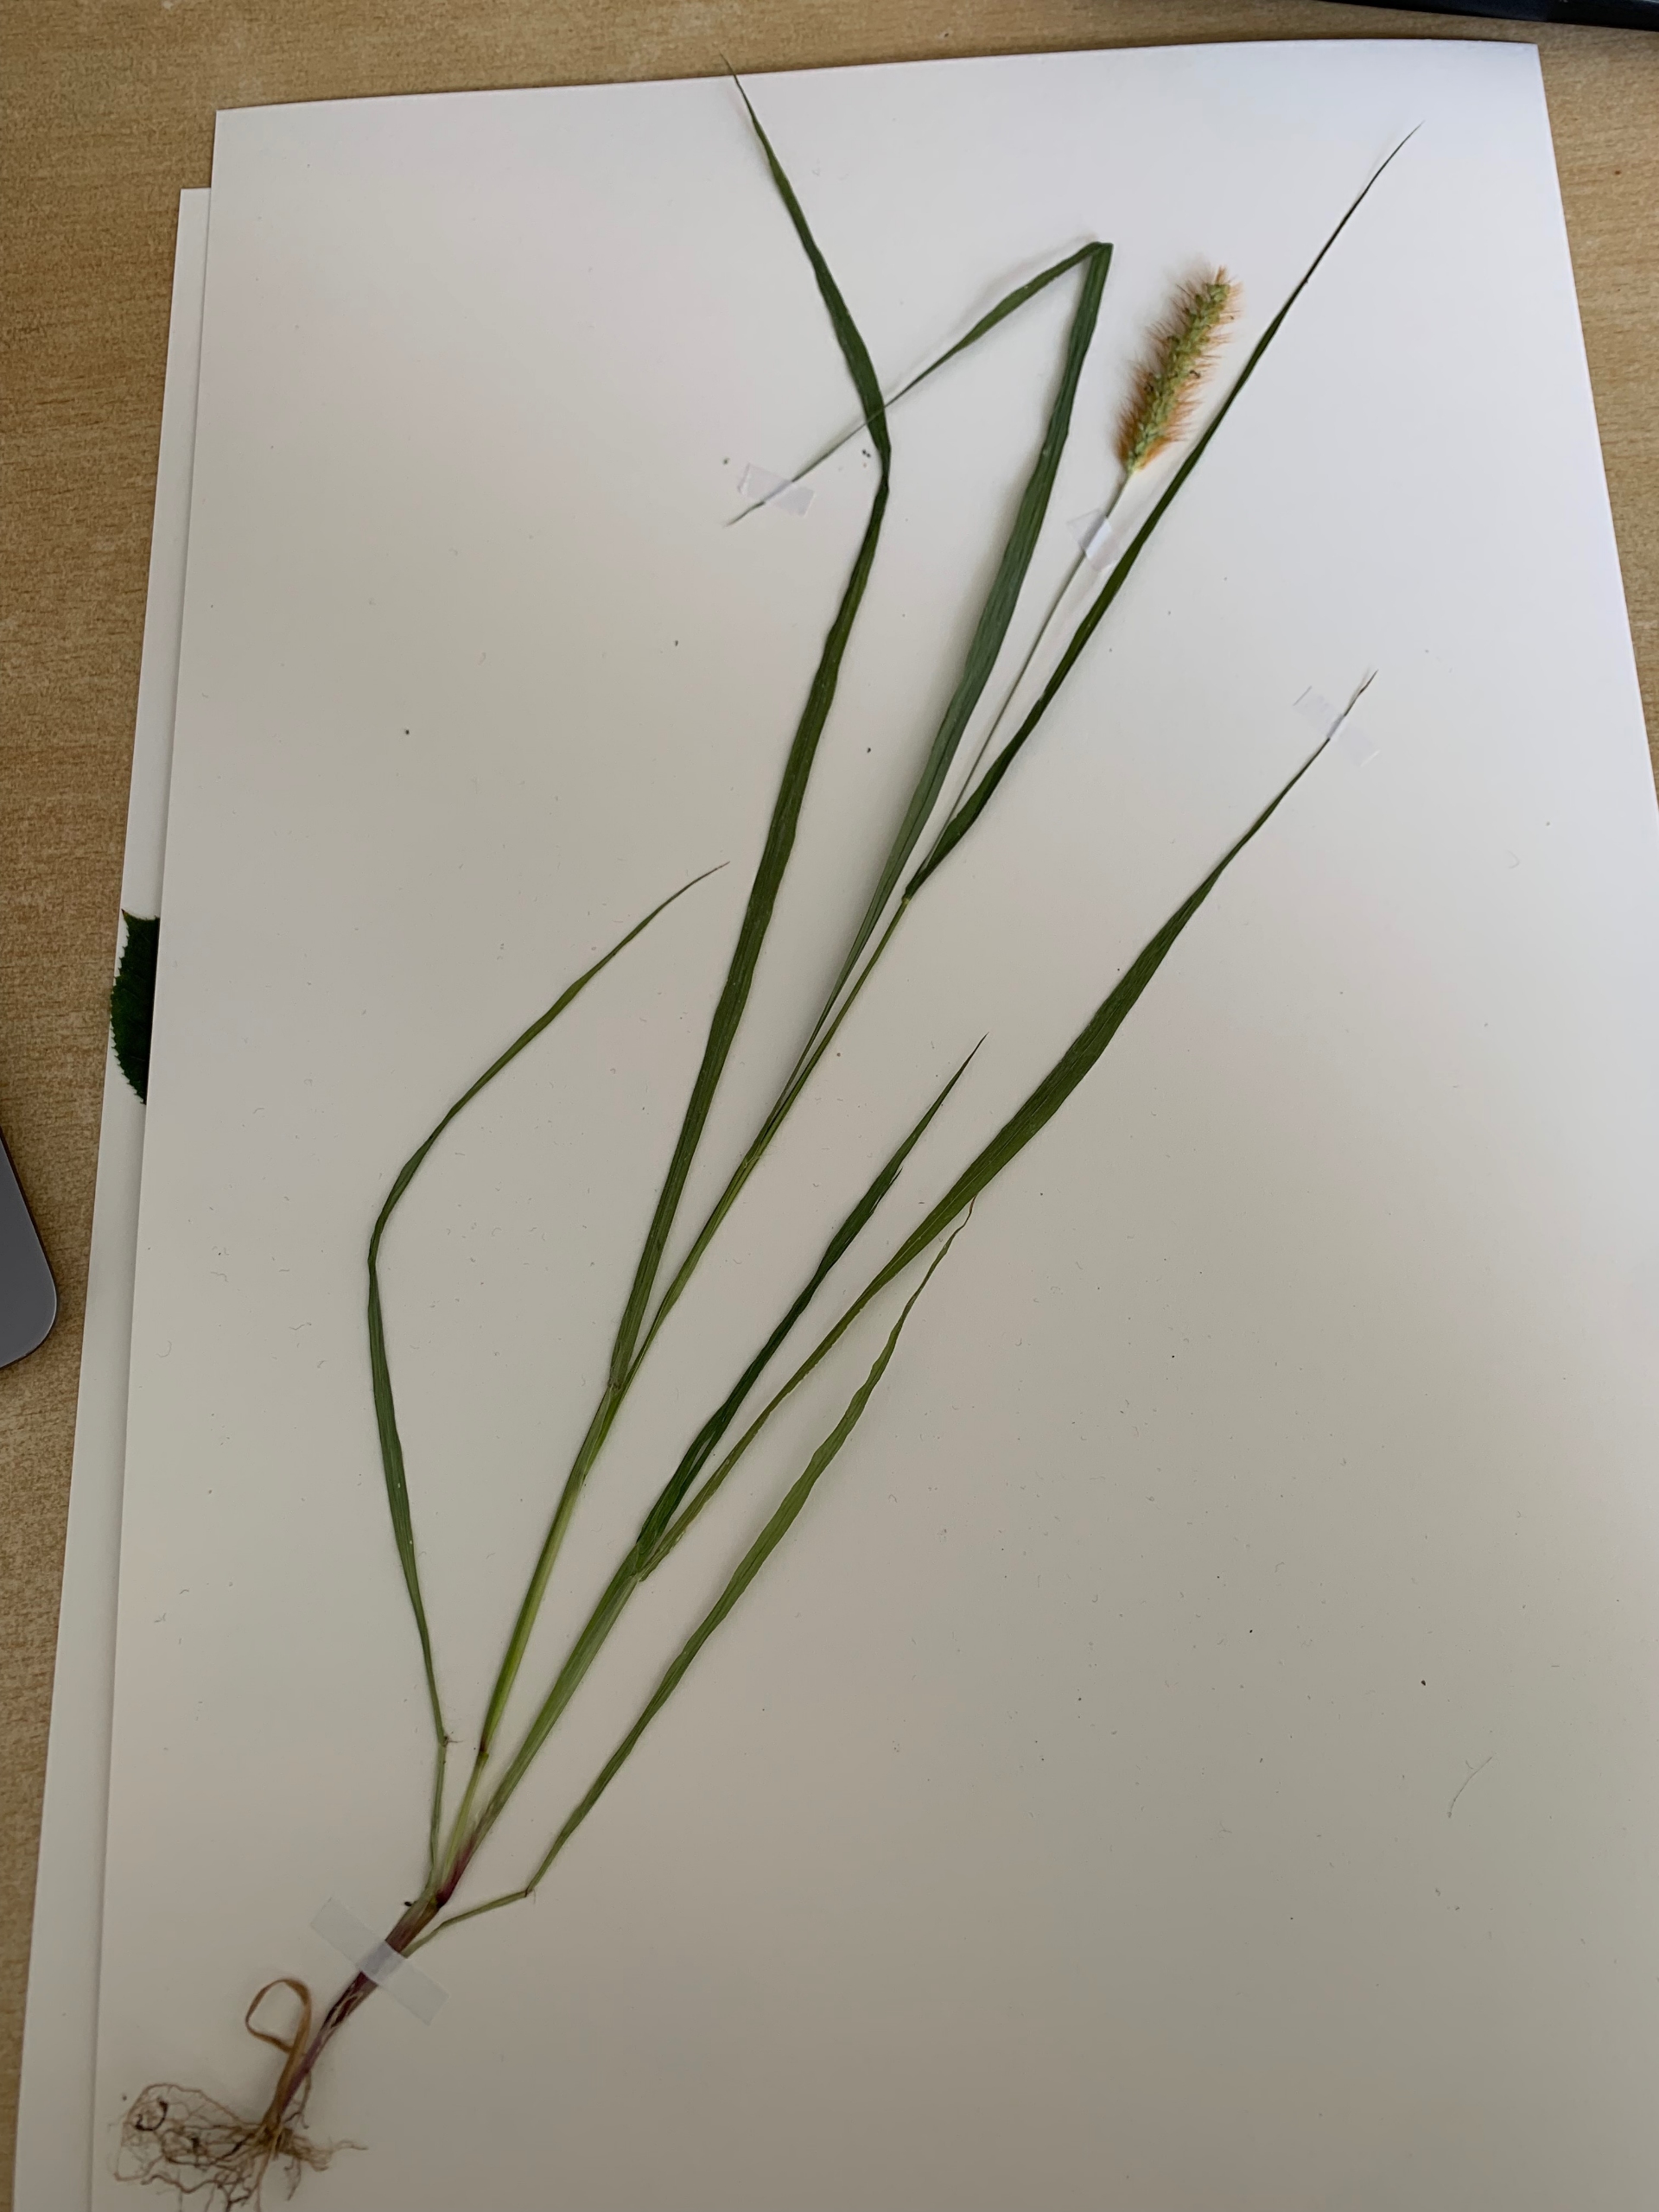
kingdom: Plantae
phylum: Tracheophyta
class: Liliopsida
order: Poales
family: Poaceae
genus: Setaria
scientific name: Setaria pumila
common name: Blågrøn skærmaks
